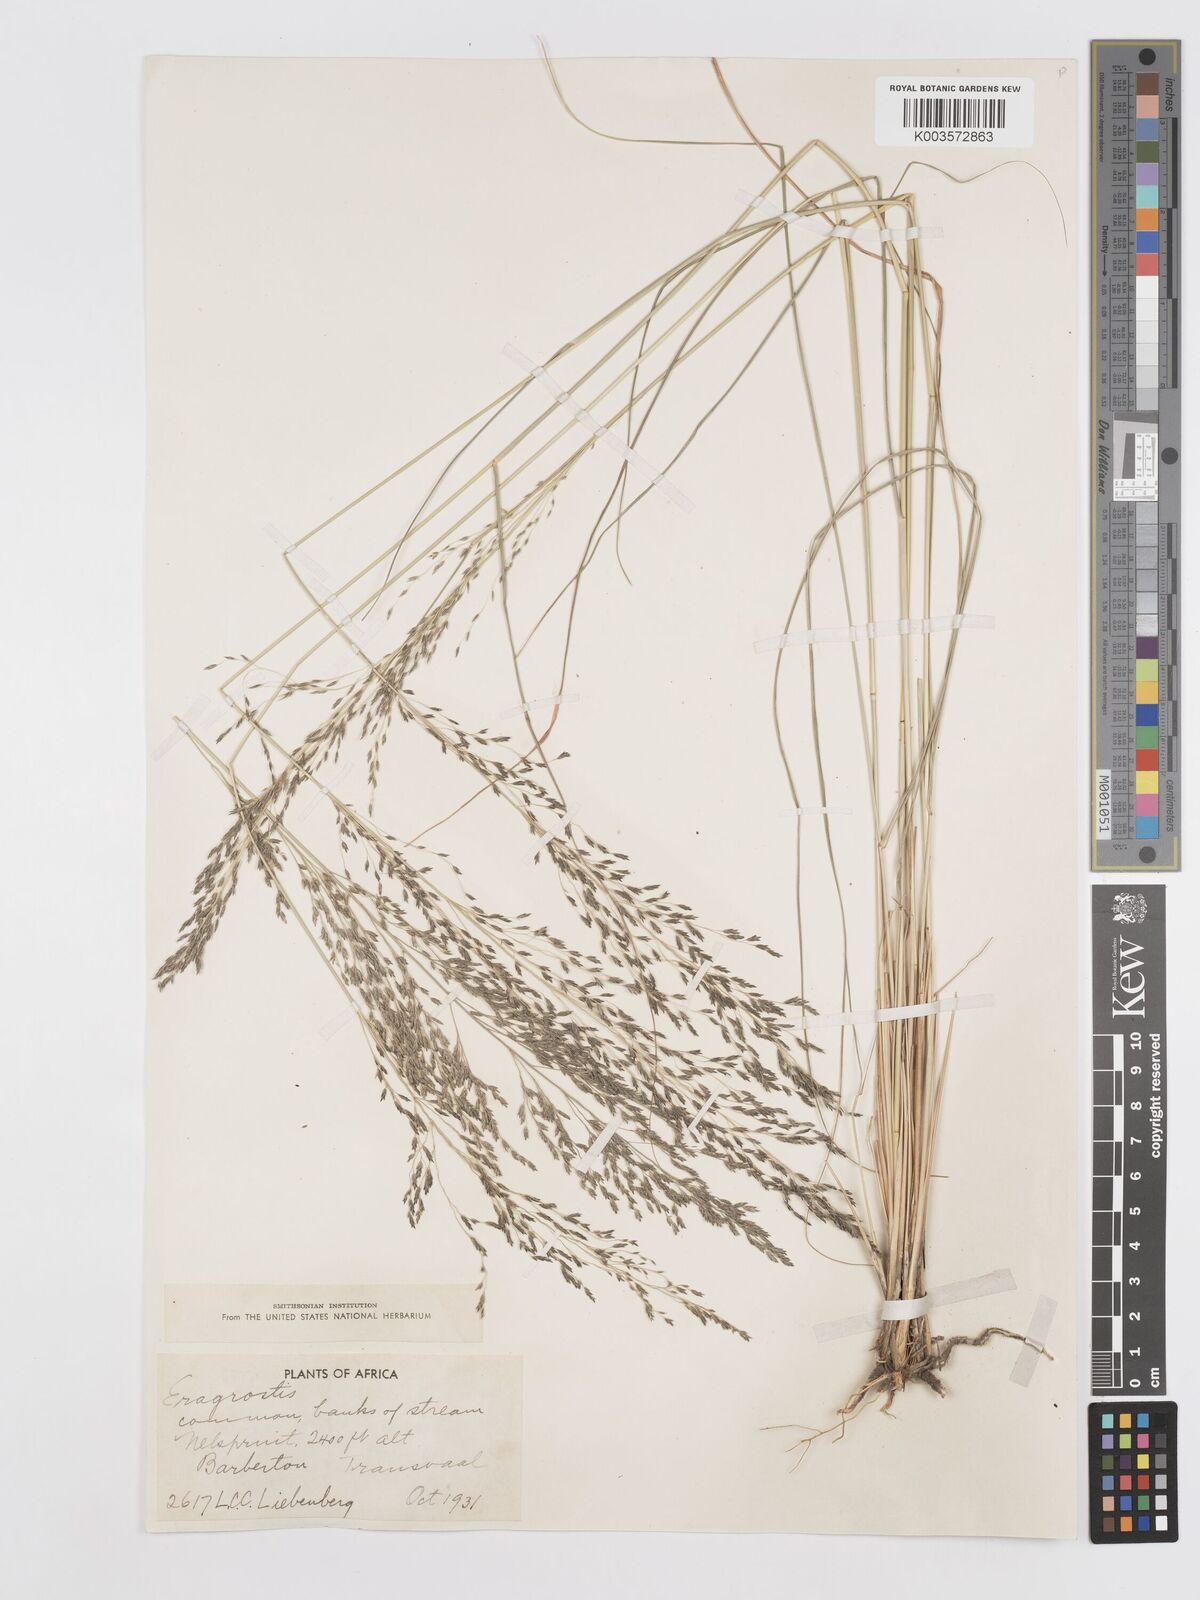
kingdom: Plantae
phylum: Tracheophyta
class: Liliopsida
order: Poales
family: Poaceae
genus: Eragrostis
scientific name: Eragrostis curvula
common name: African love-grass
